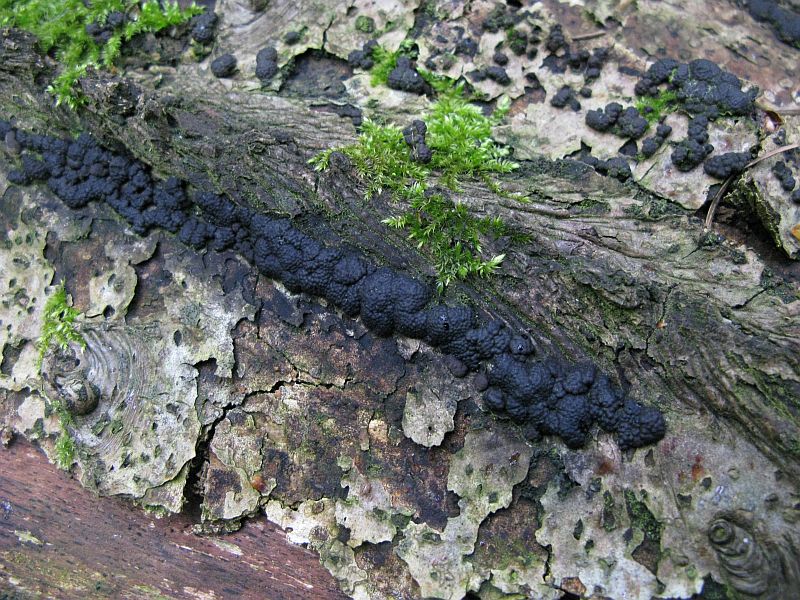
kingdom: Fungi
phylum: Ascomycota
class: Sordariomycetes
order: Xylariales
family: Hypoxylaceae
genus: Jackrogersella
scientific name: Jackrogersella cohaerens
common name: sammenflydende kulbær
